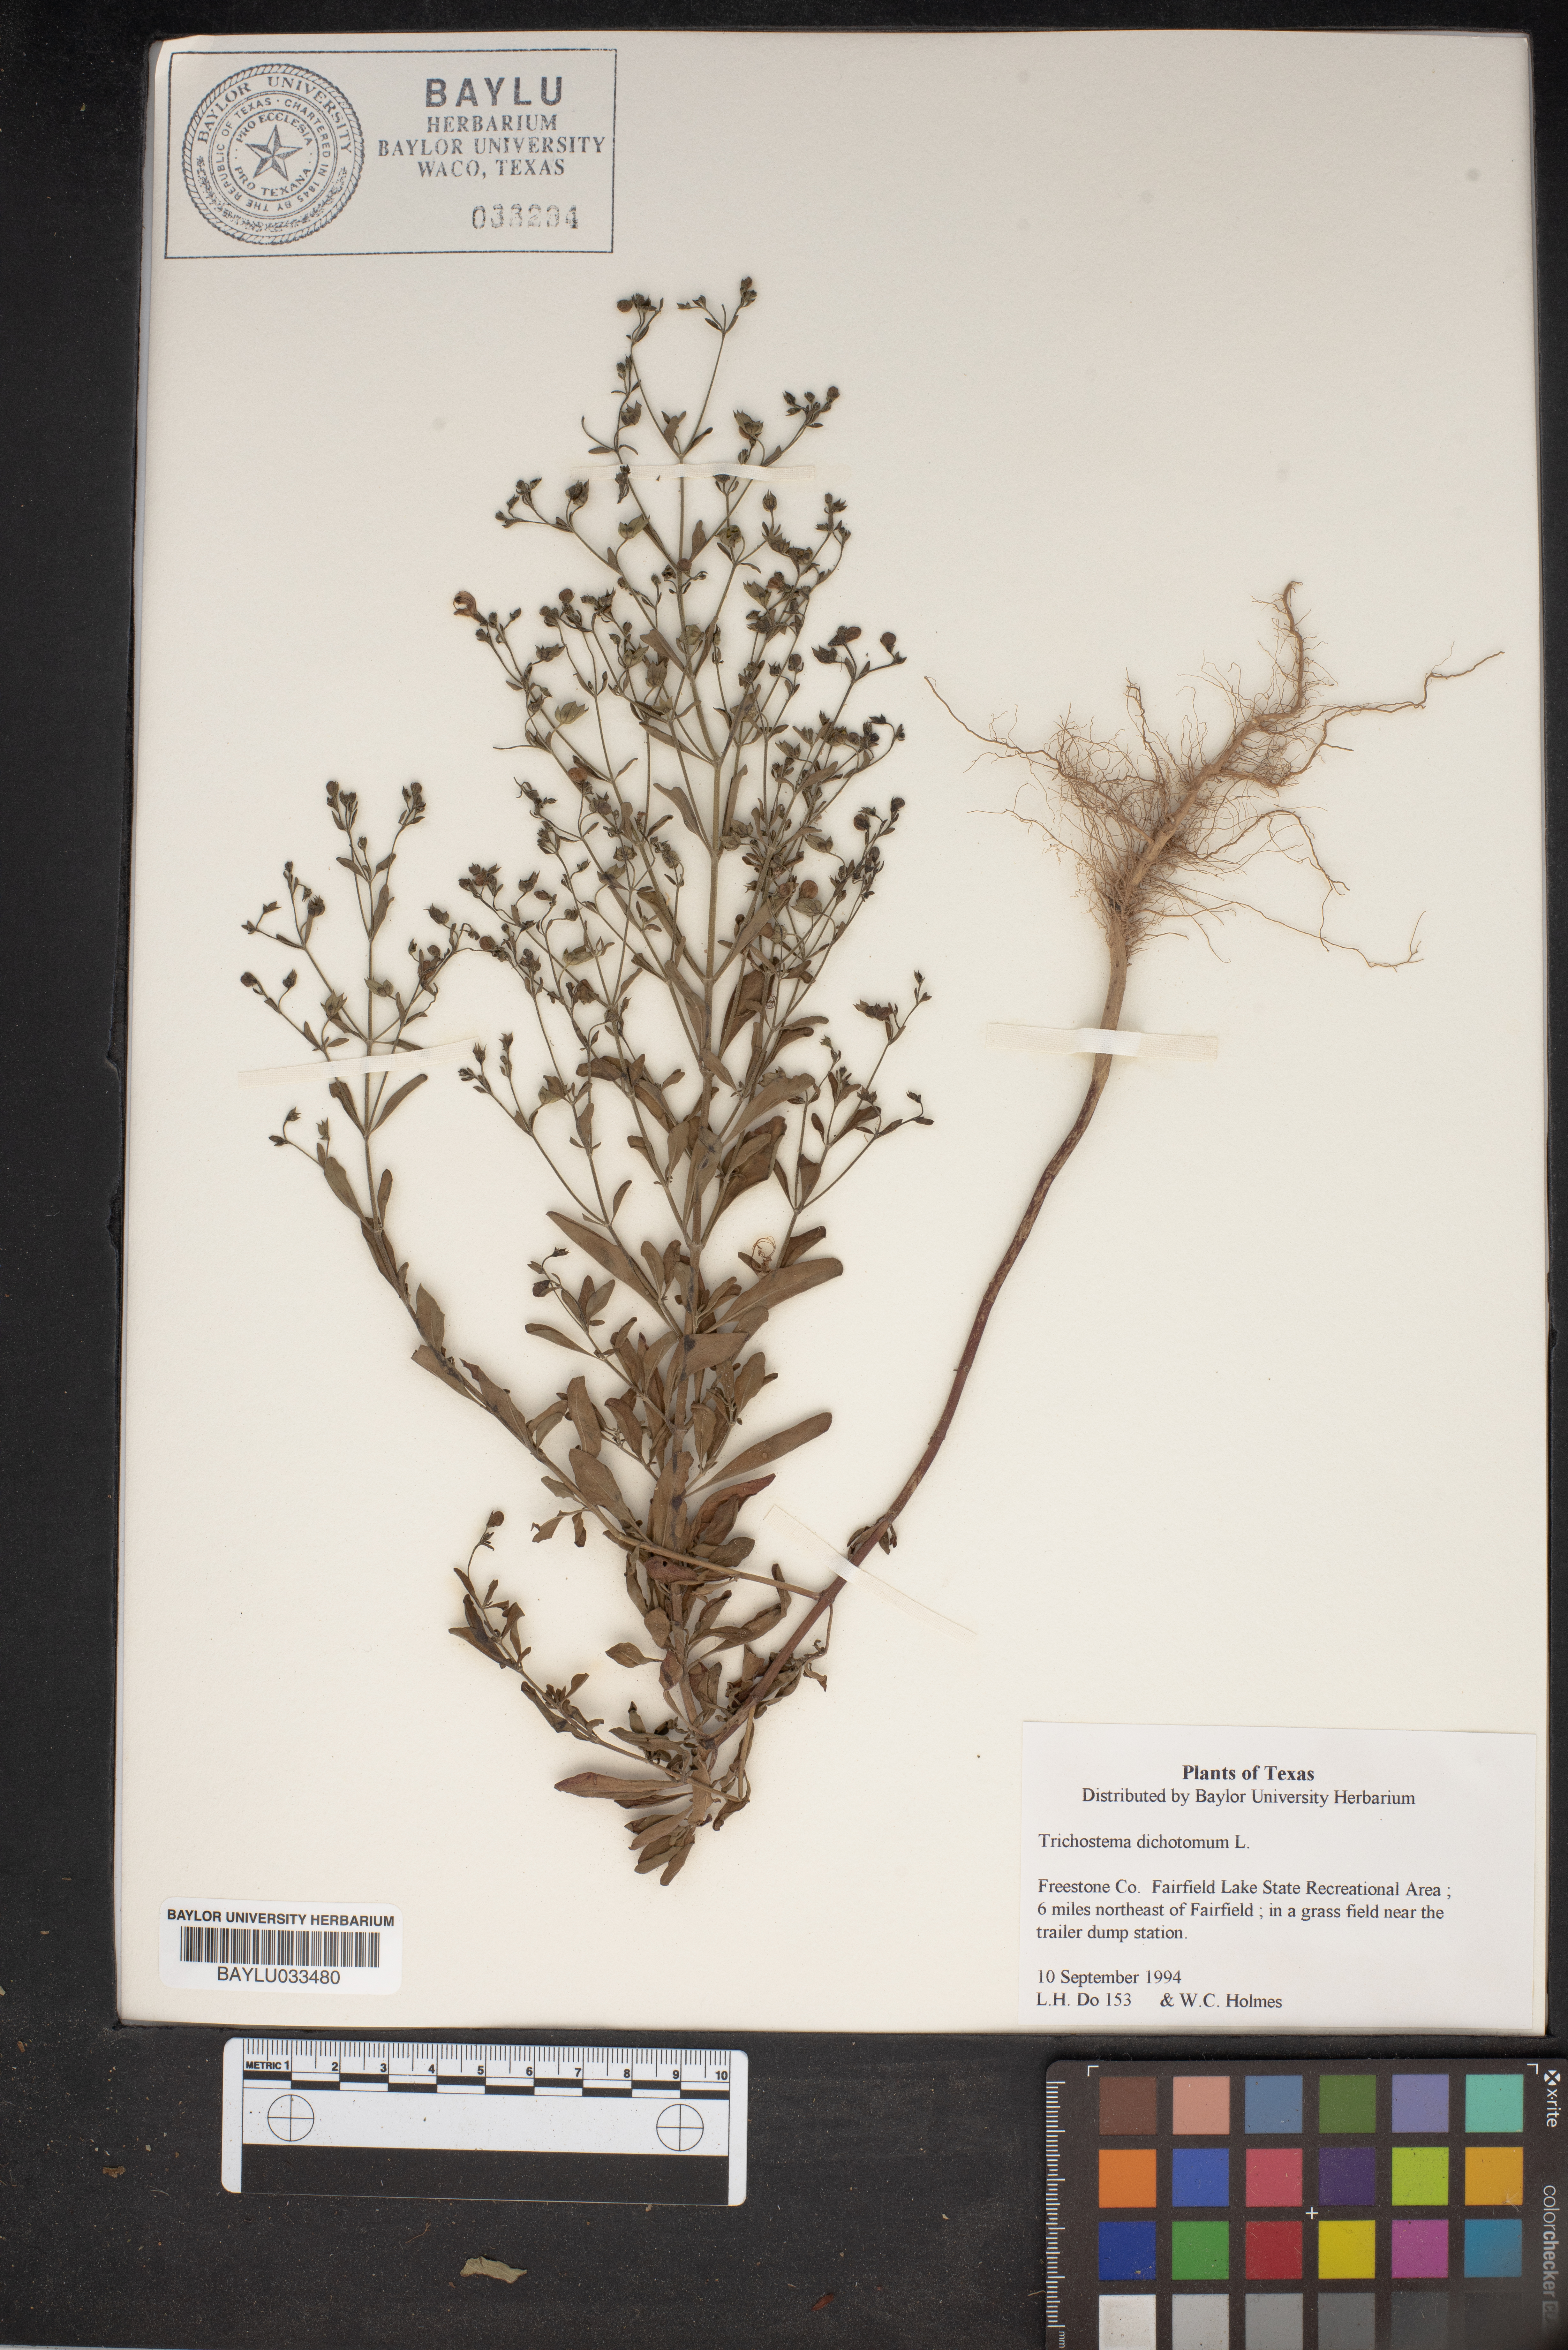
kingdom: Plantae
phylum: Tracheophyta
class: Magnoliopsida
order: Lamiales
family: Lamiaceae
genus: Trichostema
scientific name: Trichostema dichotomum
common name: Bastard pennyroyal
